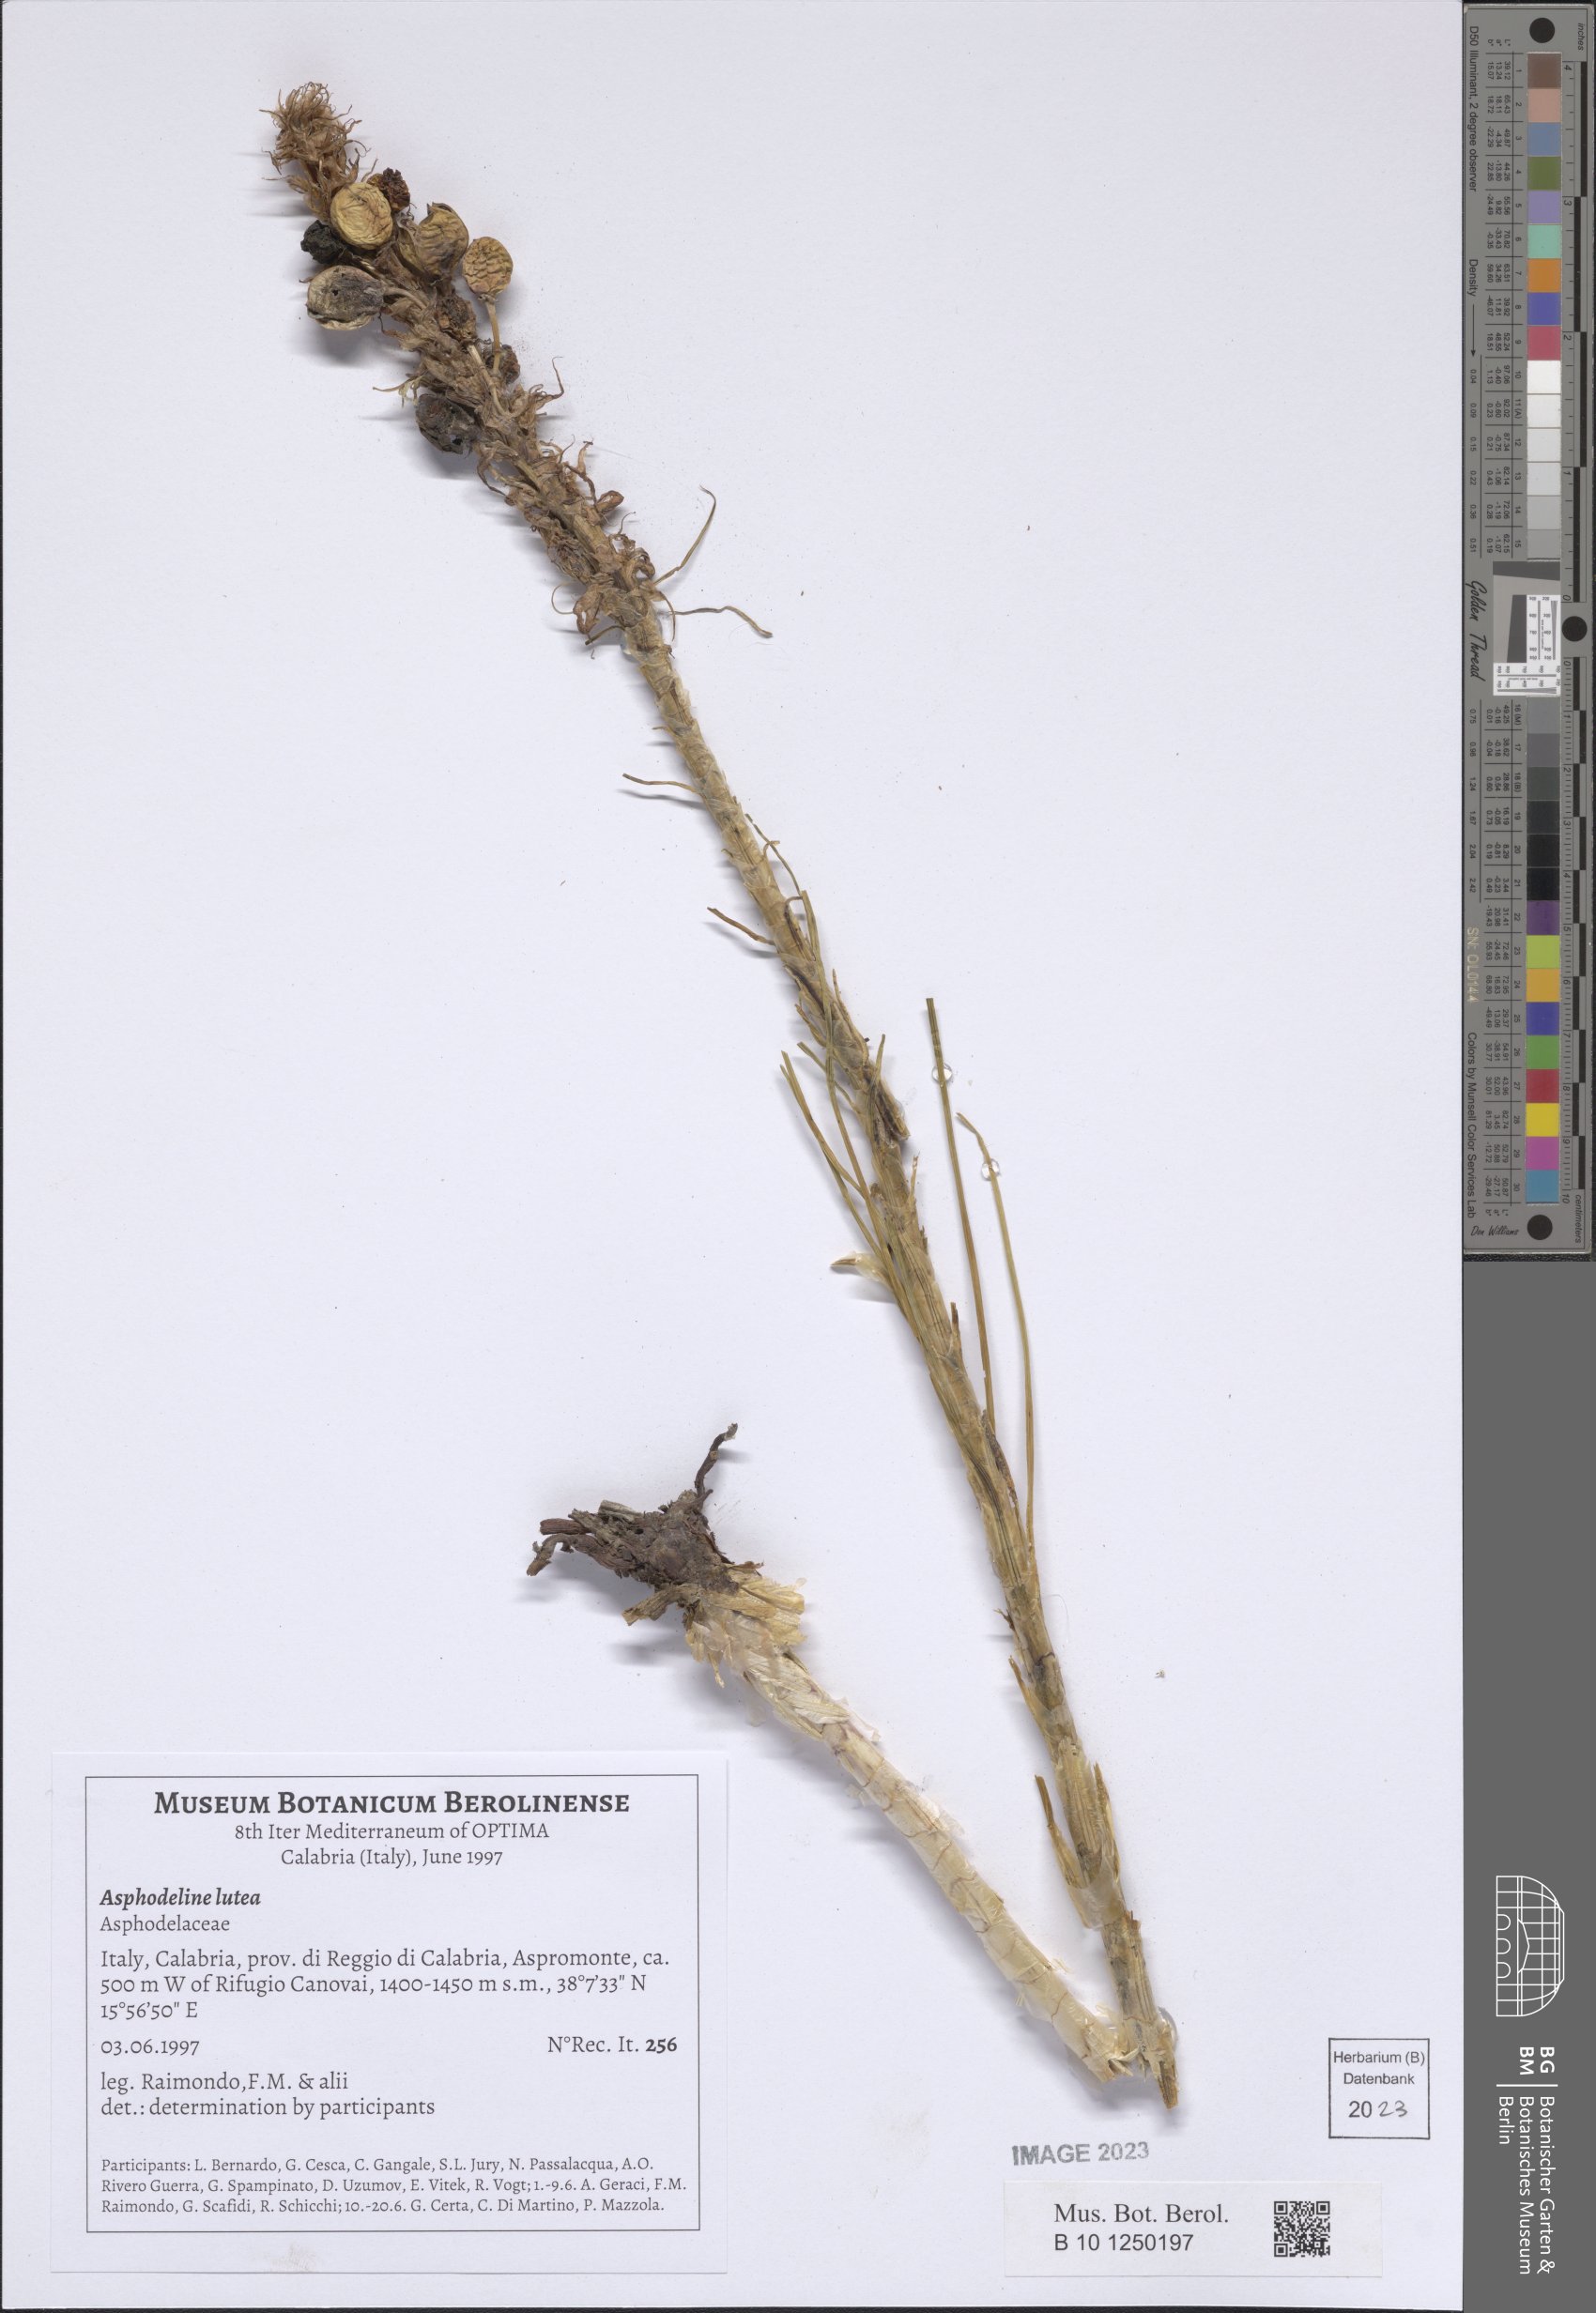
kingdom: Plantae
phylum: Tracheophyta
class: Liliopsida
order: Asparagales
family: Asphodelaceae
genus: Asphodeline
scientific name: Asphodeline lutea
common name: Yellow asphodel
